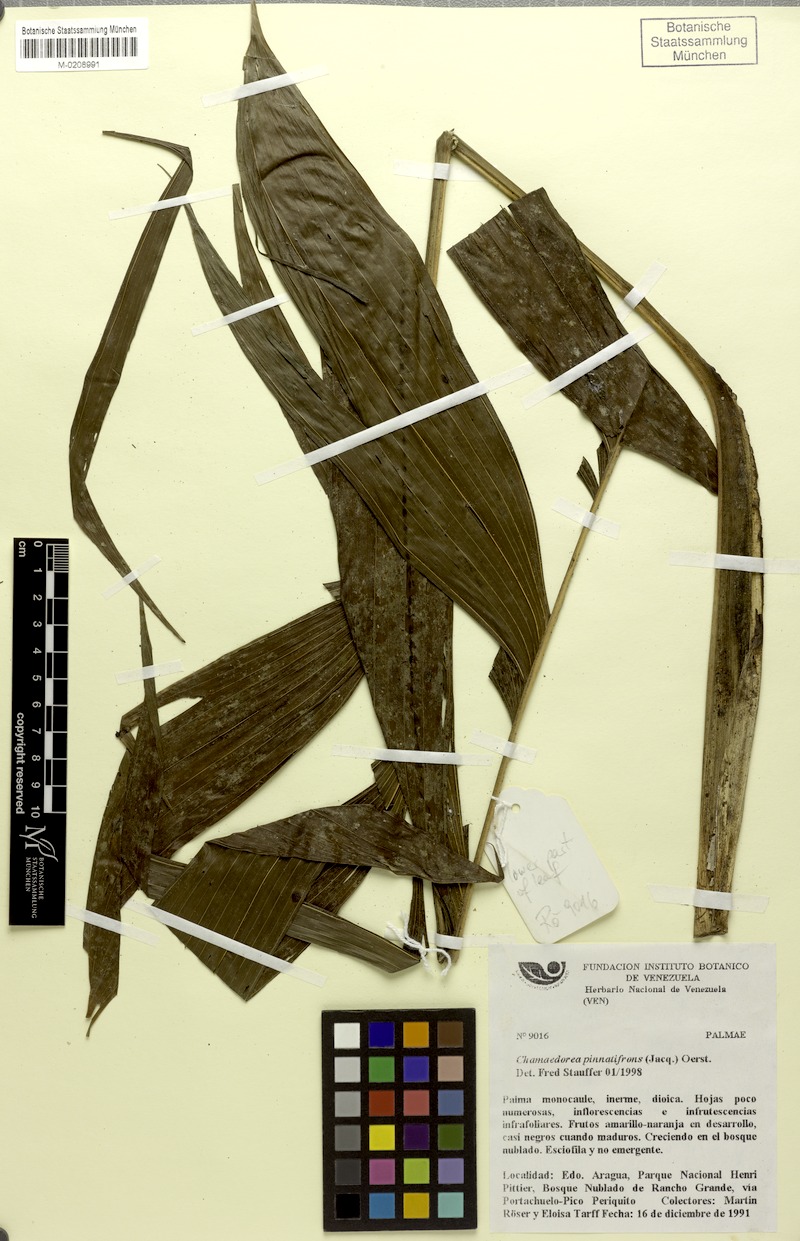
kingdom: Plantae
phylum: Tracheophyta
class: Liliopsida
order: Arecales
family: Arecaceae
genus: Chamaedorea
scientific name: Chamaedorea pinnatifrons
